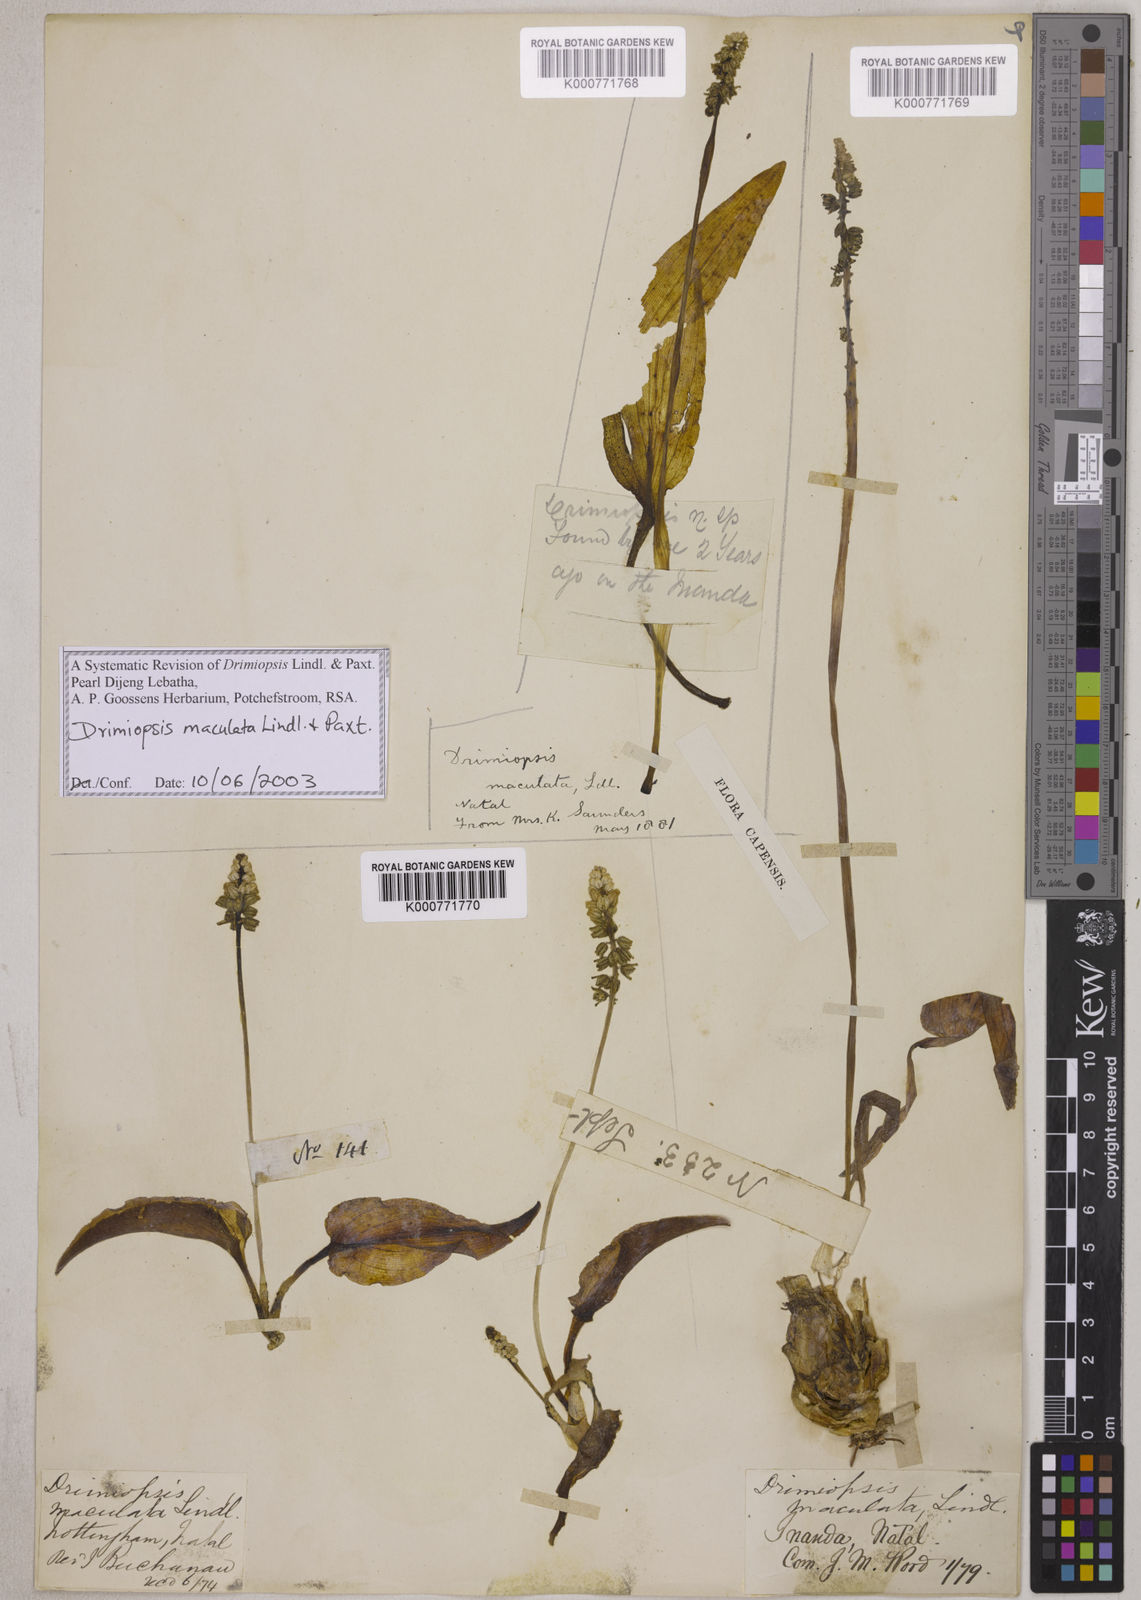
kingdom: Plantae
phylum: Tracheophyta
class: Liliopsida
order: Asparagales
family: Asparagaceae
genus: Drimiopsis
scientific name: Drimiopsis maculata
